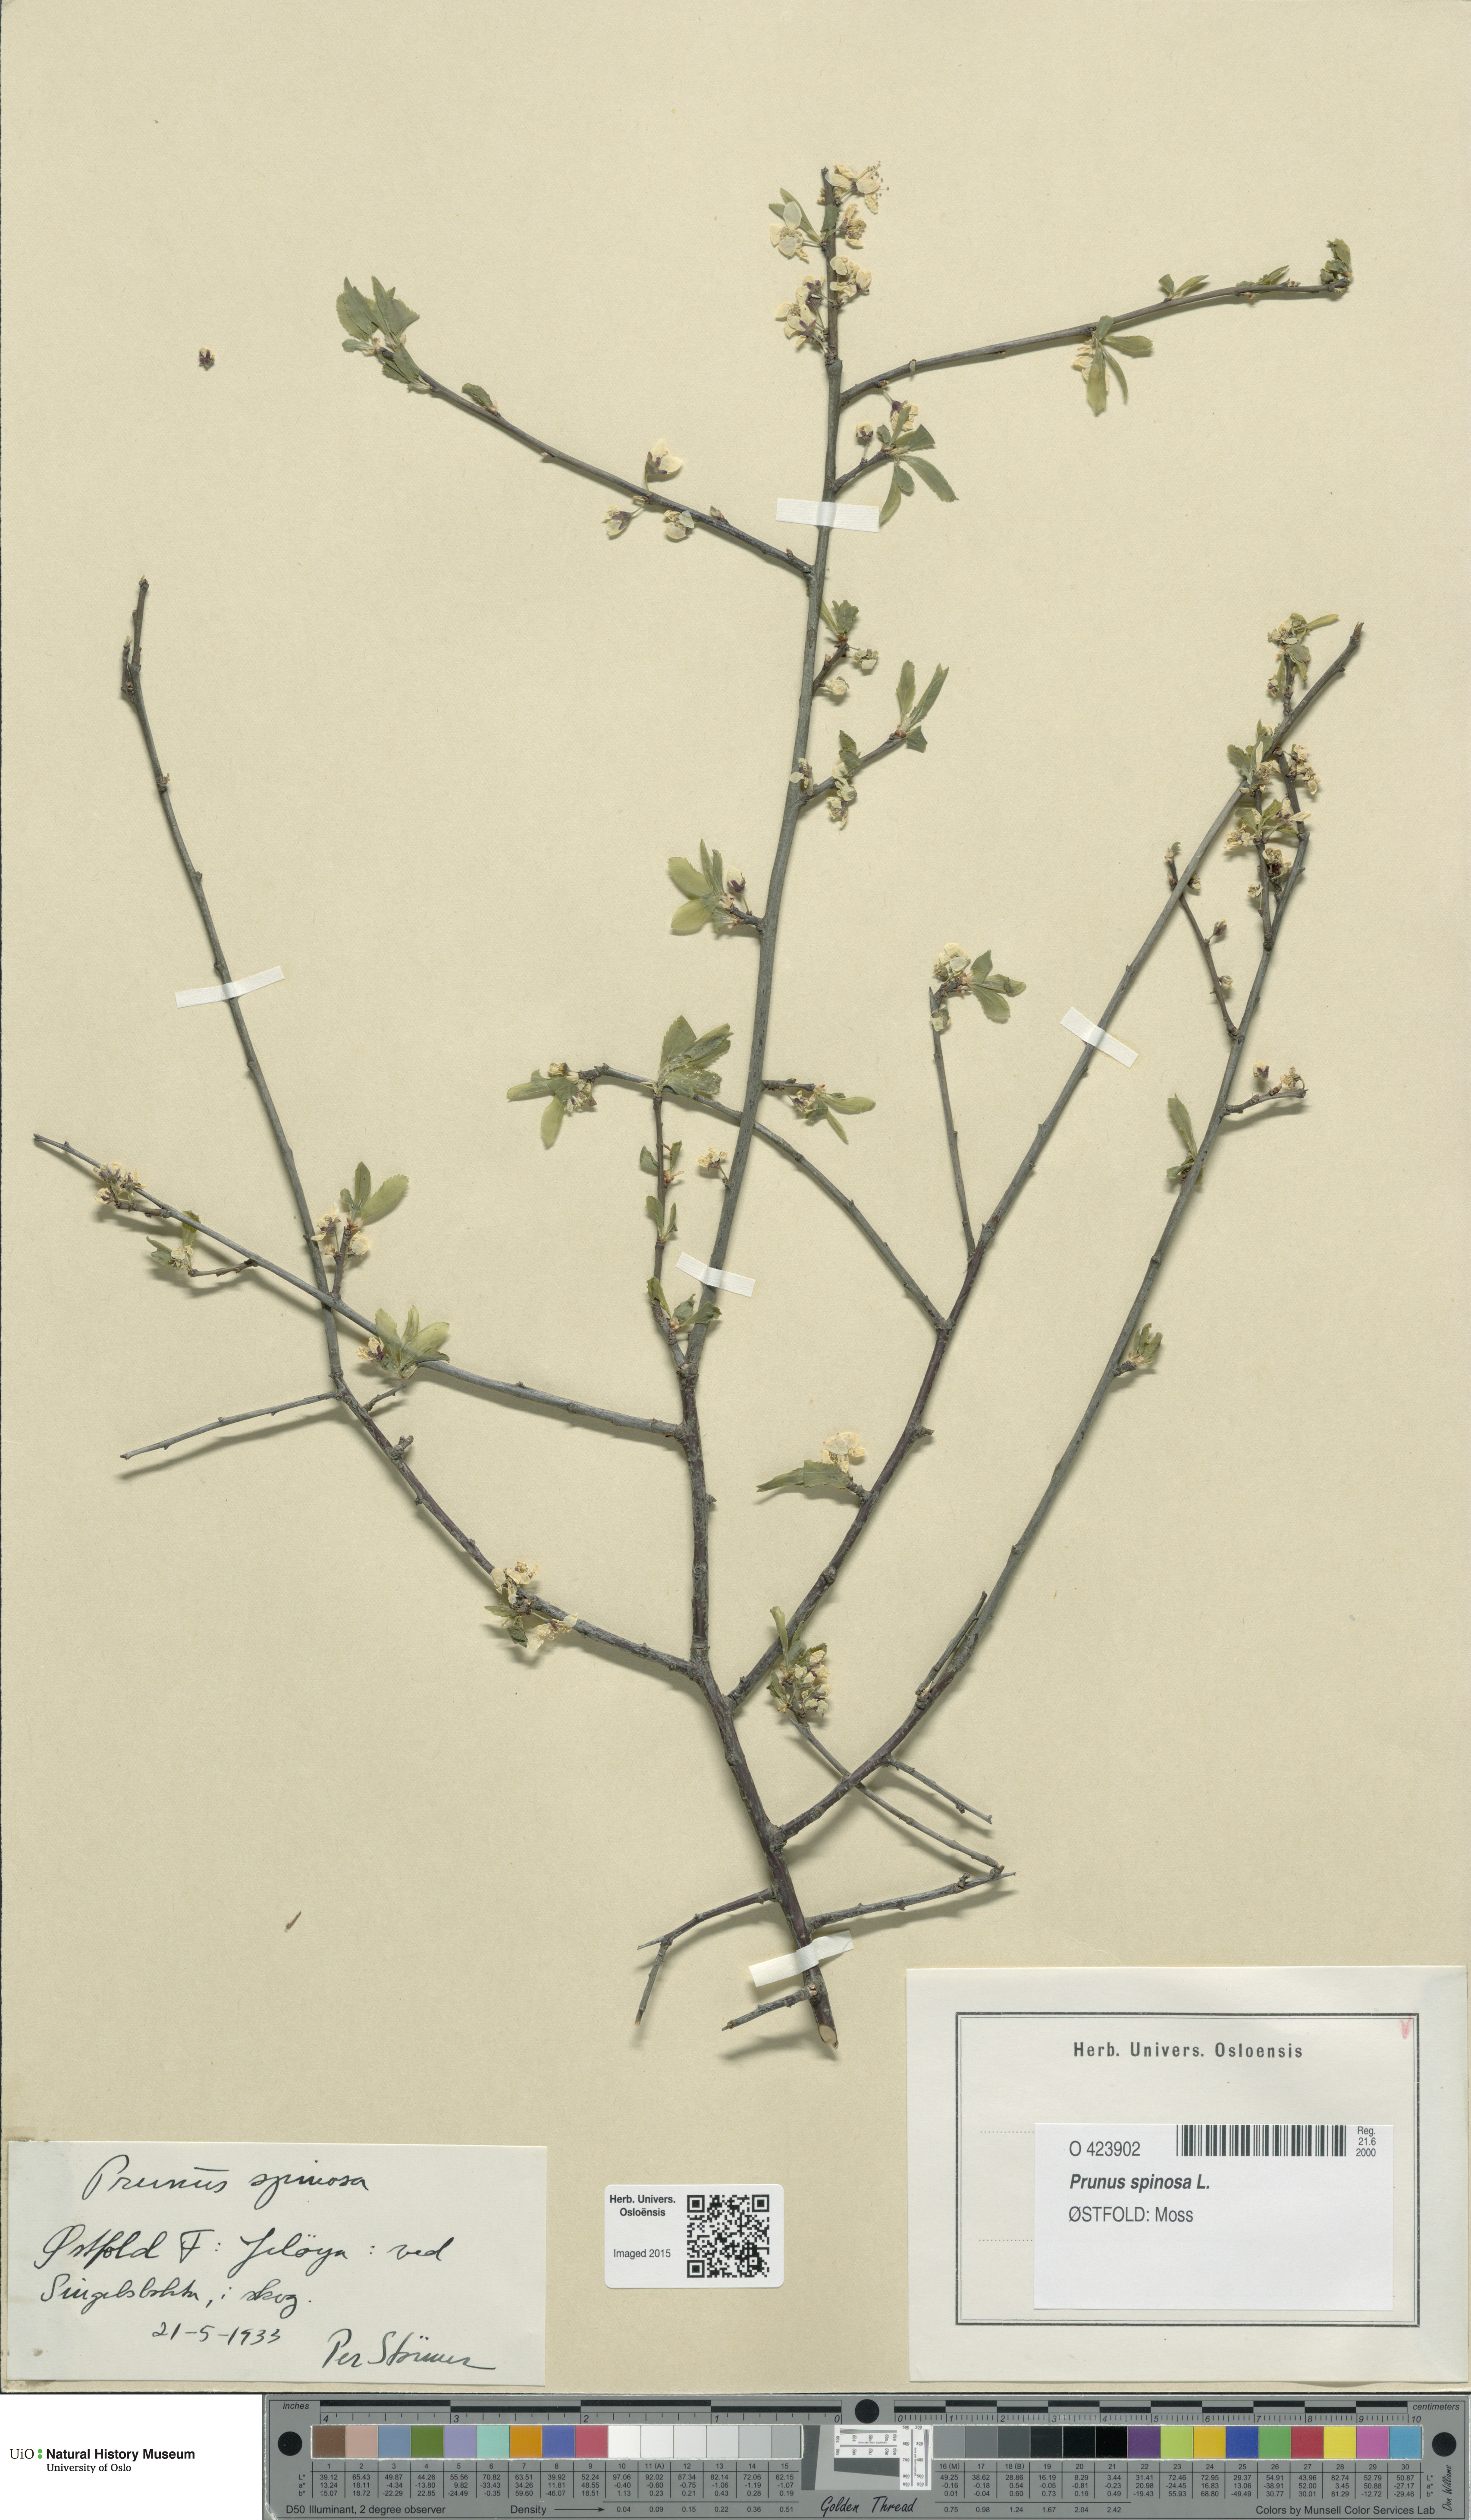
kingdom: Plantae
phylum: Tracheophyta
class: Magnoliopsida
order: Rosales
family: Rosaceae
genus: Prunus
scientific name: Prunus spinosa
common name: Blackthorn
